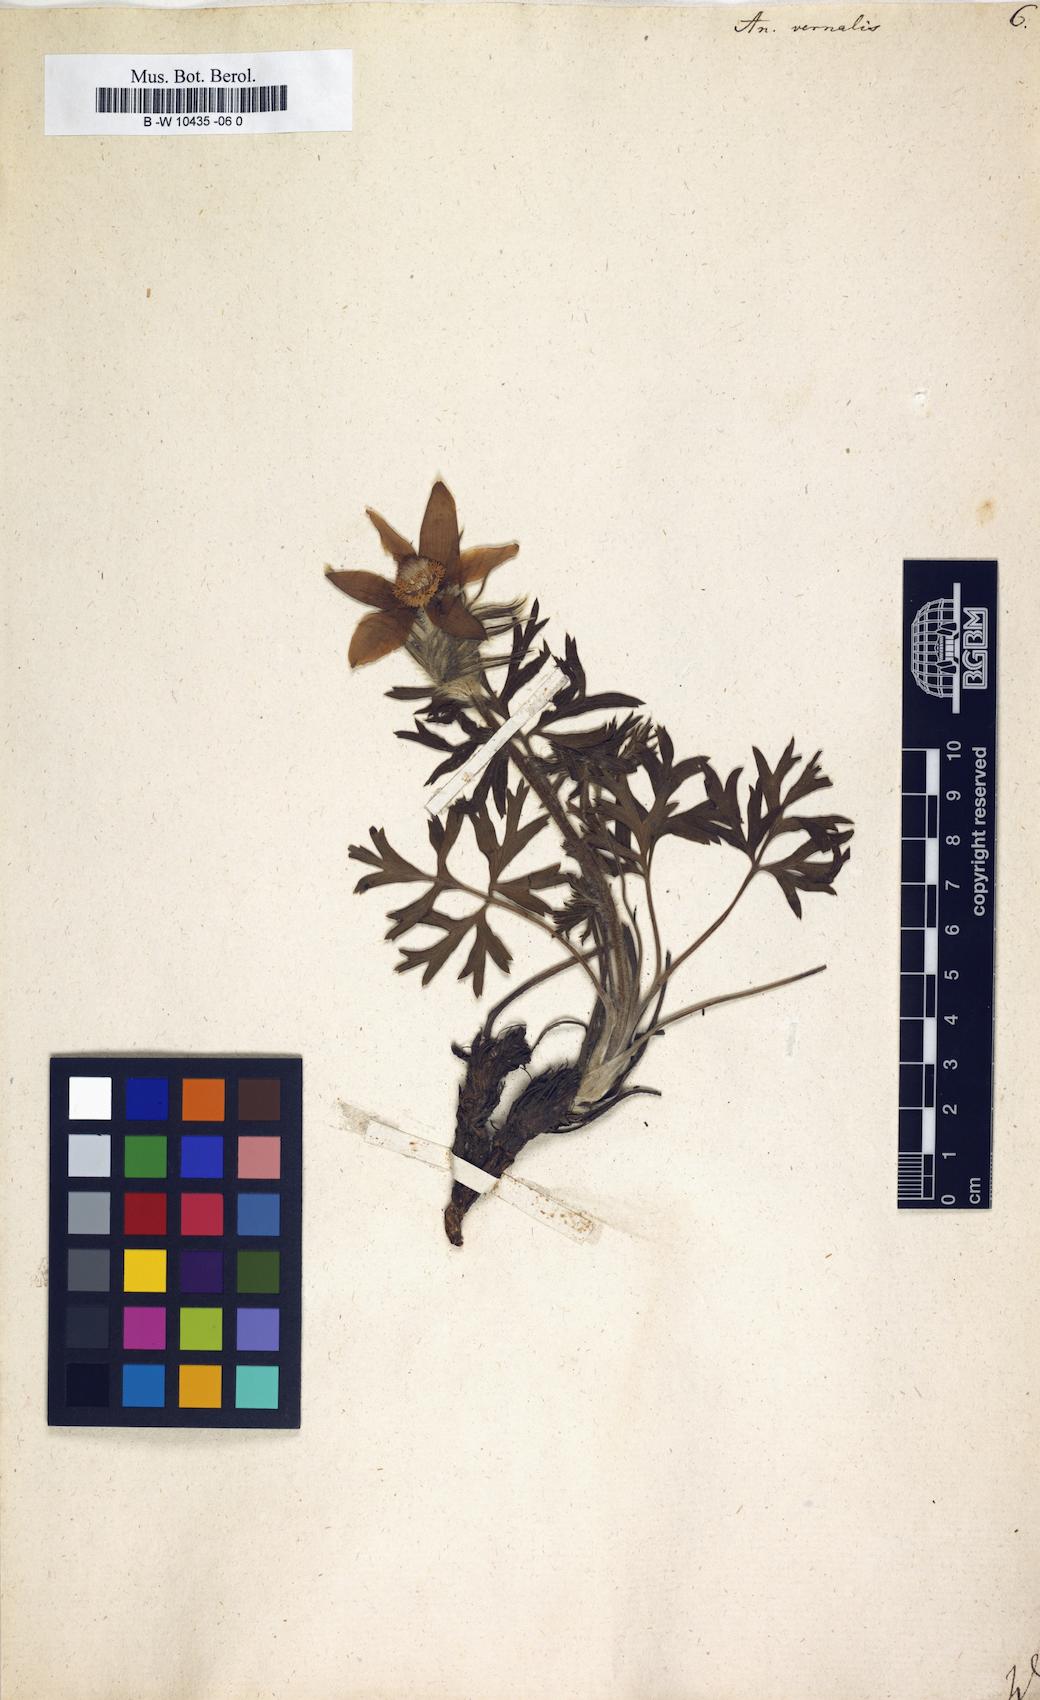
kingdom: Plantae
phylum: Tracheophyta
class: Magnoliopsida
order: Ranunculales
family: Ranunculaceae
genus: Pulsatilla
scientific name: Pulsatilla vernalis
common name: Spring pasque flower
